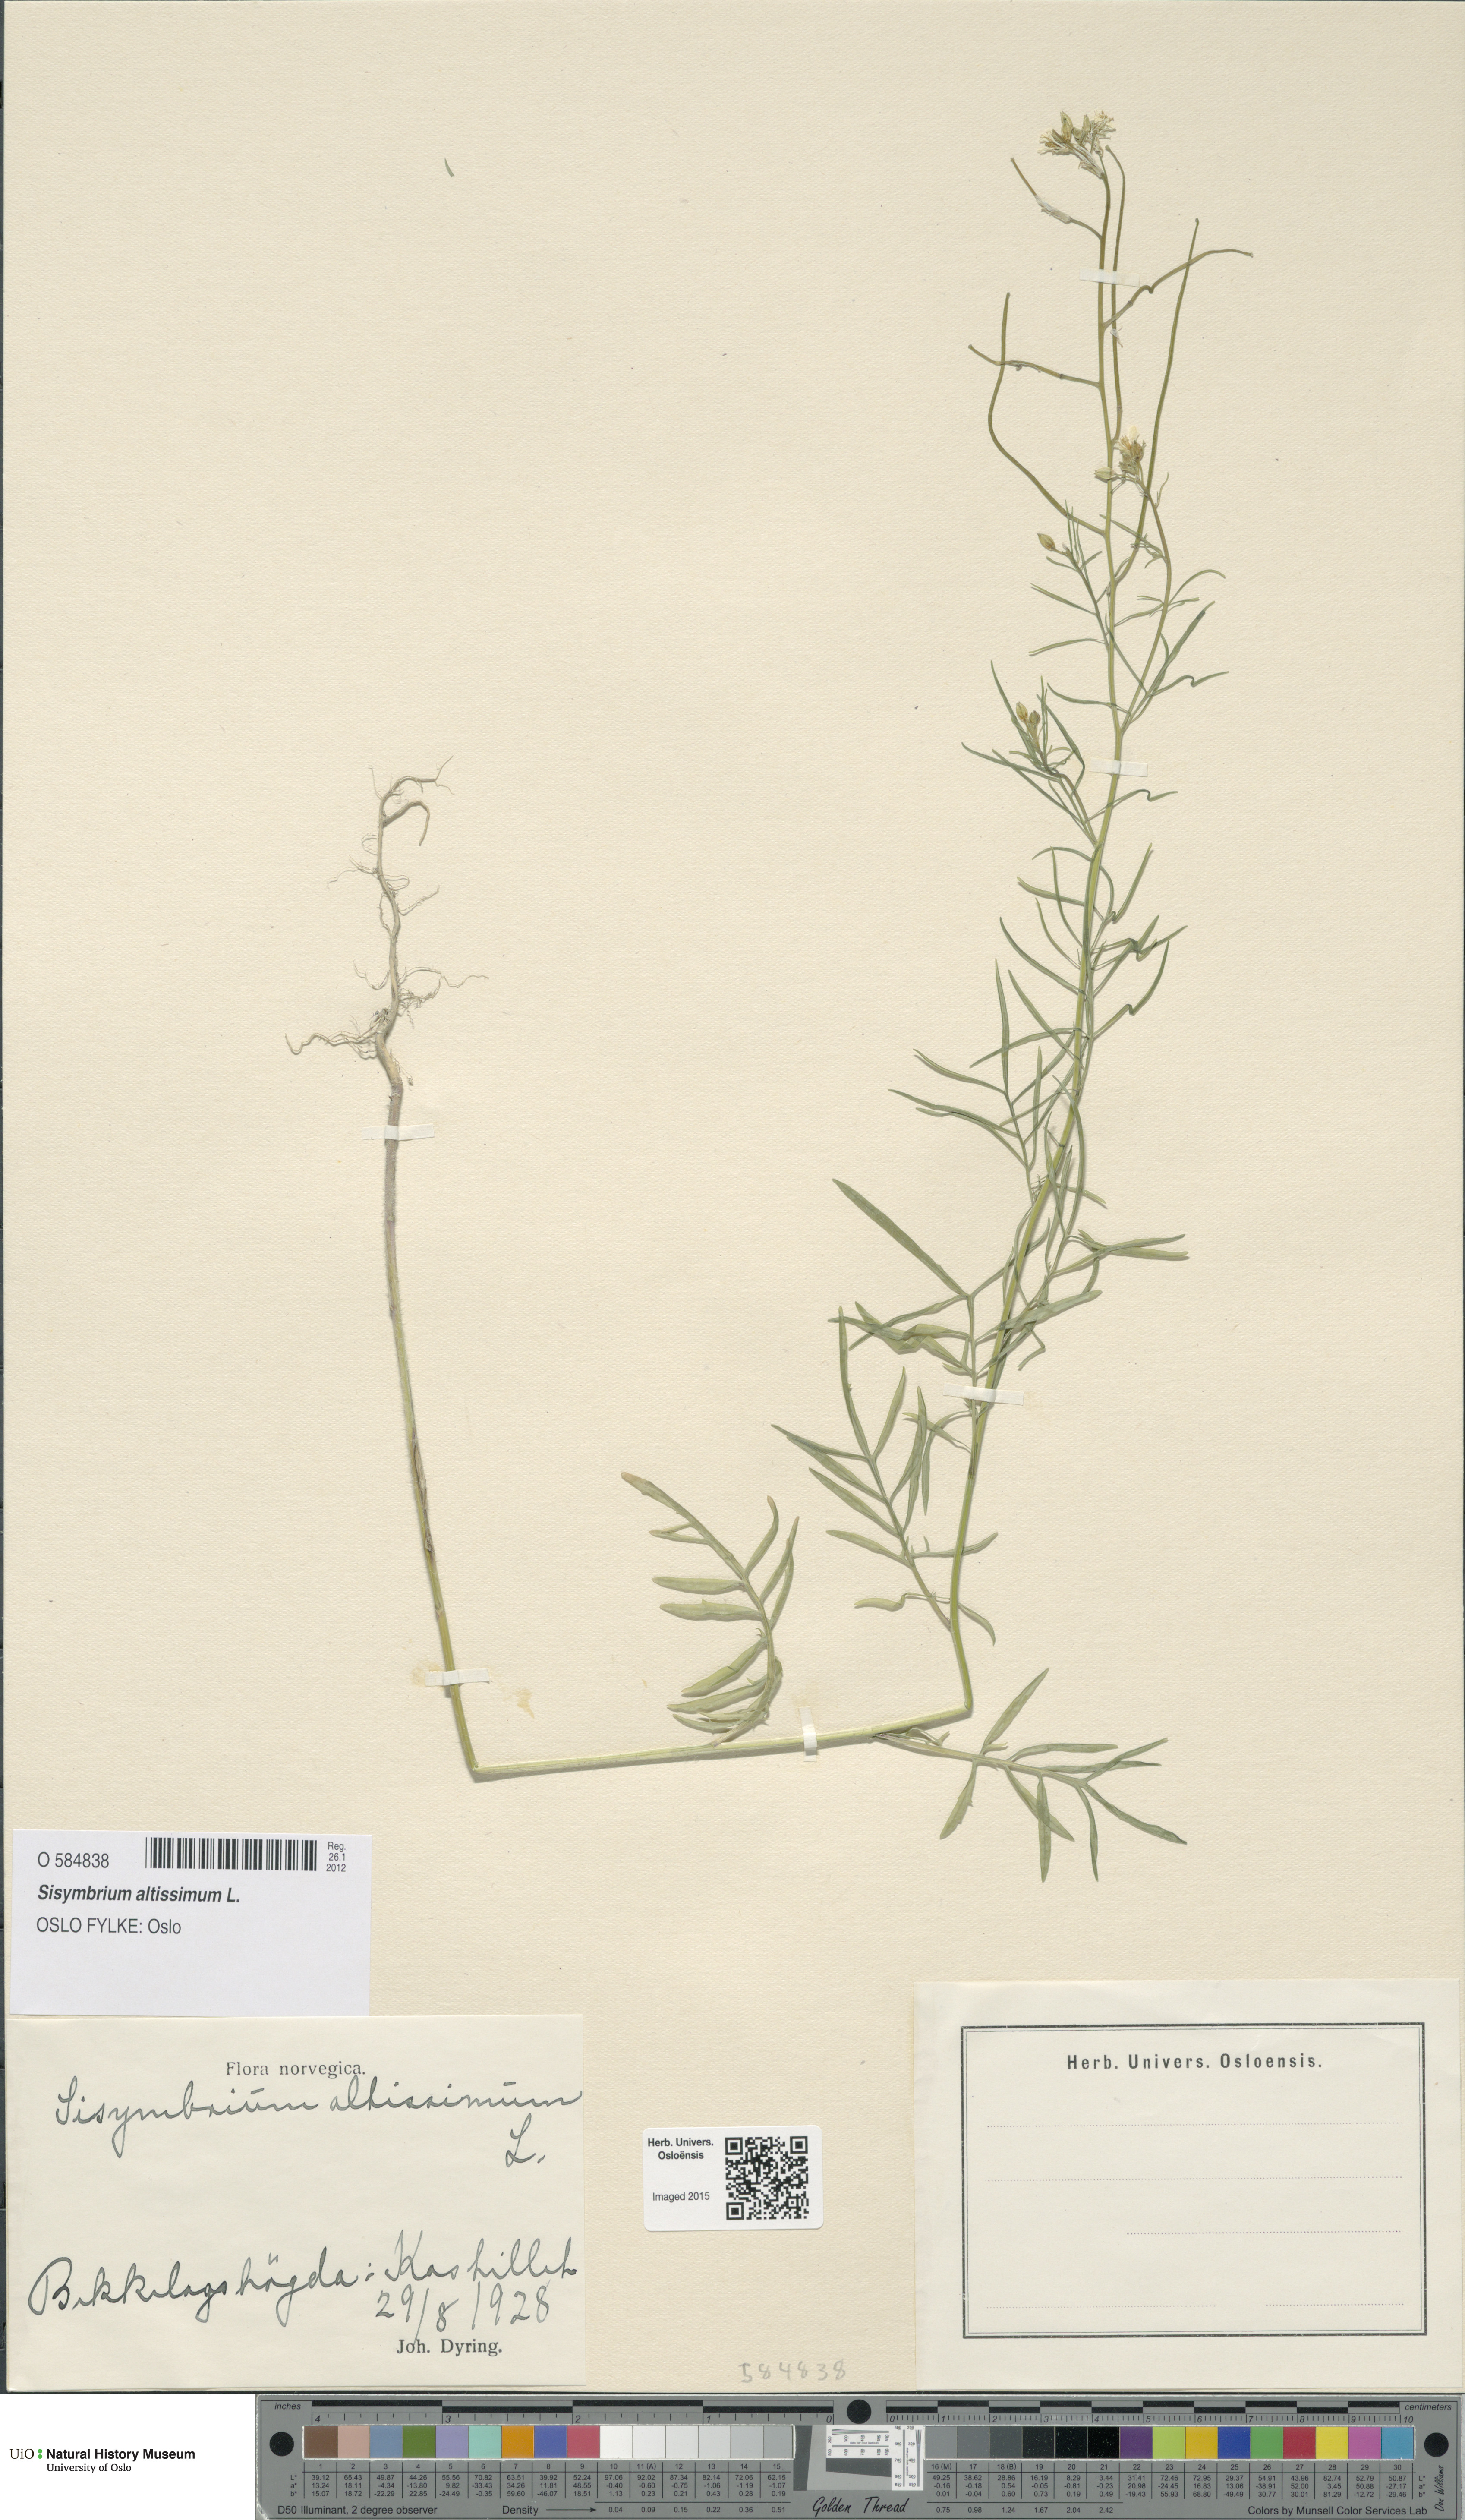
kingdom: Plantae
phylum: Tracheophyta
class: Magnoliopsida
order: Brassicales
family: Brassicaceae
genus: Sisymbrium
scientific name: Sisymbrium altissimum
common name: Tall rocket
